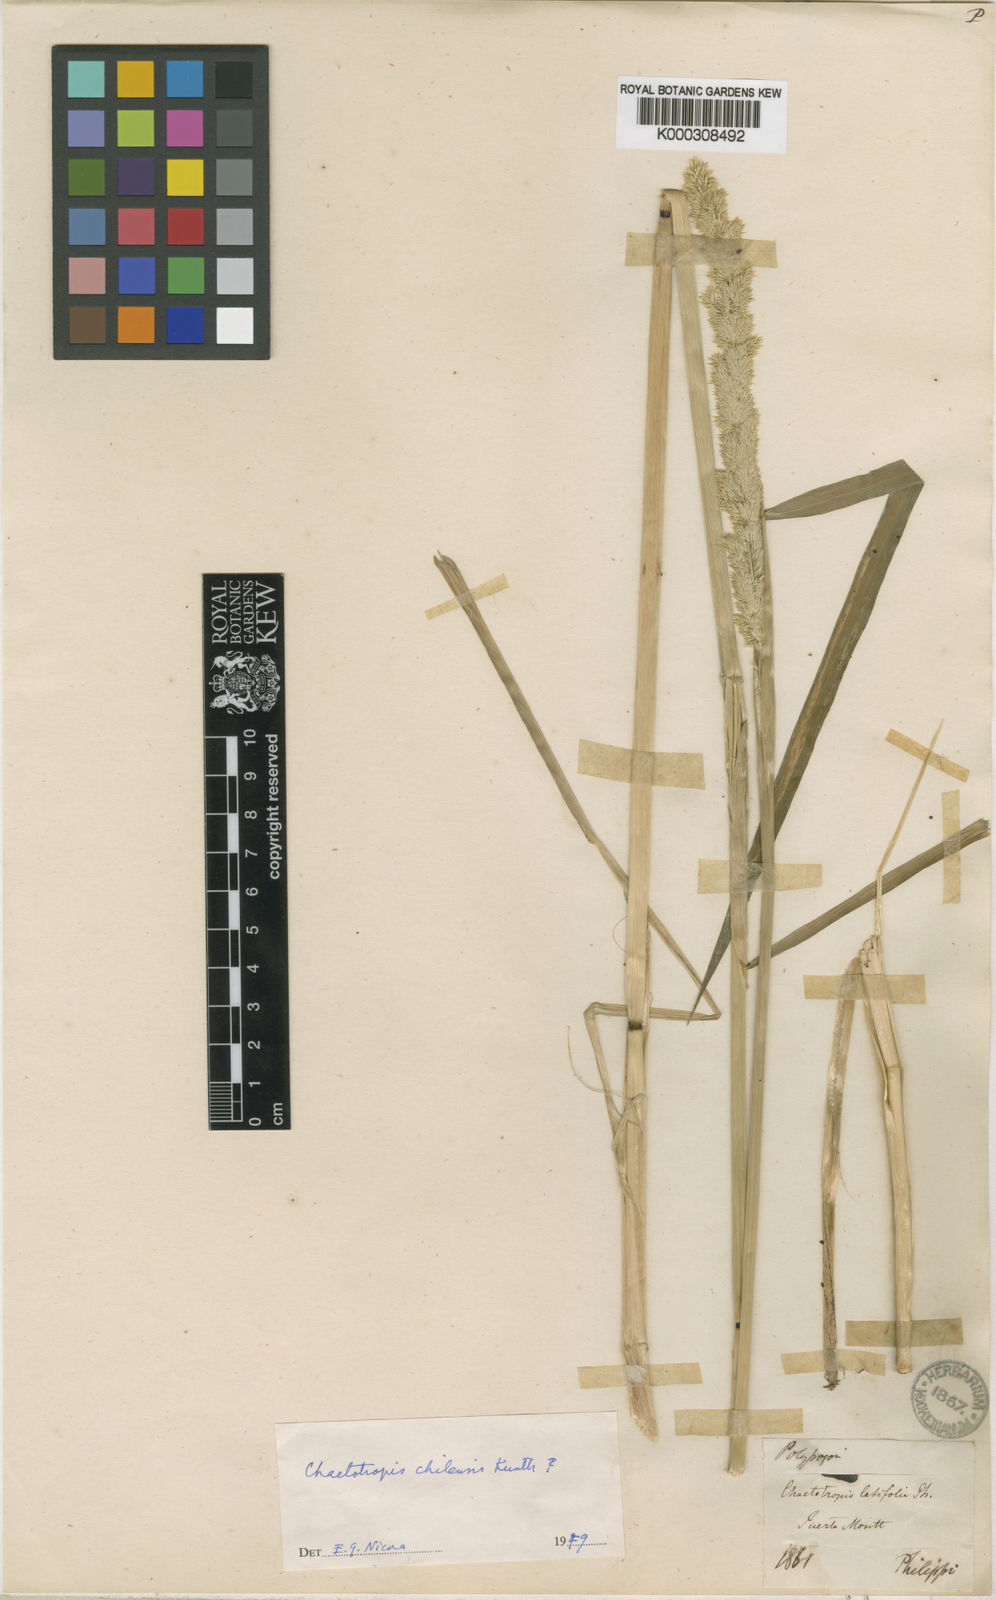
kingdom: Plantae
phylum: Tracheophyta
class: Liliopsida
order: Poales
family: Poaceae
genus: Polypogon
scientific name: Polypogon chilensis
